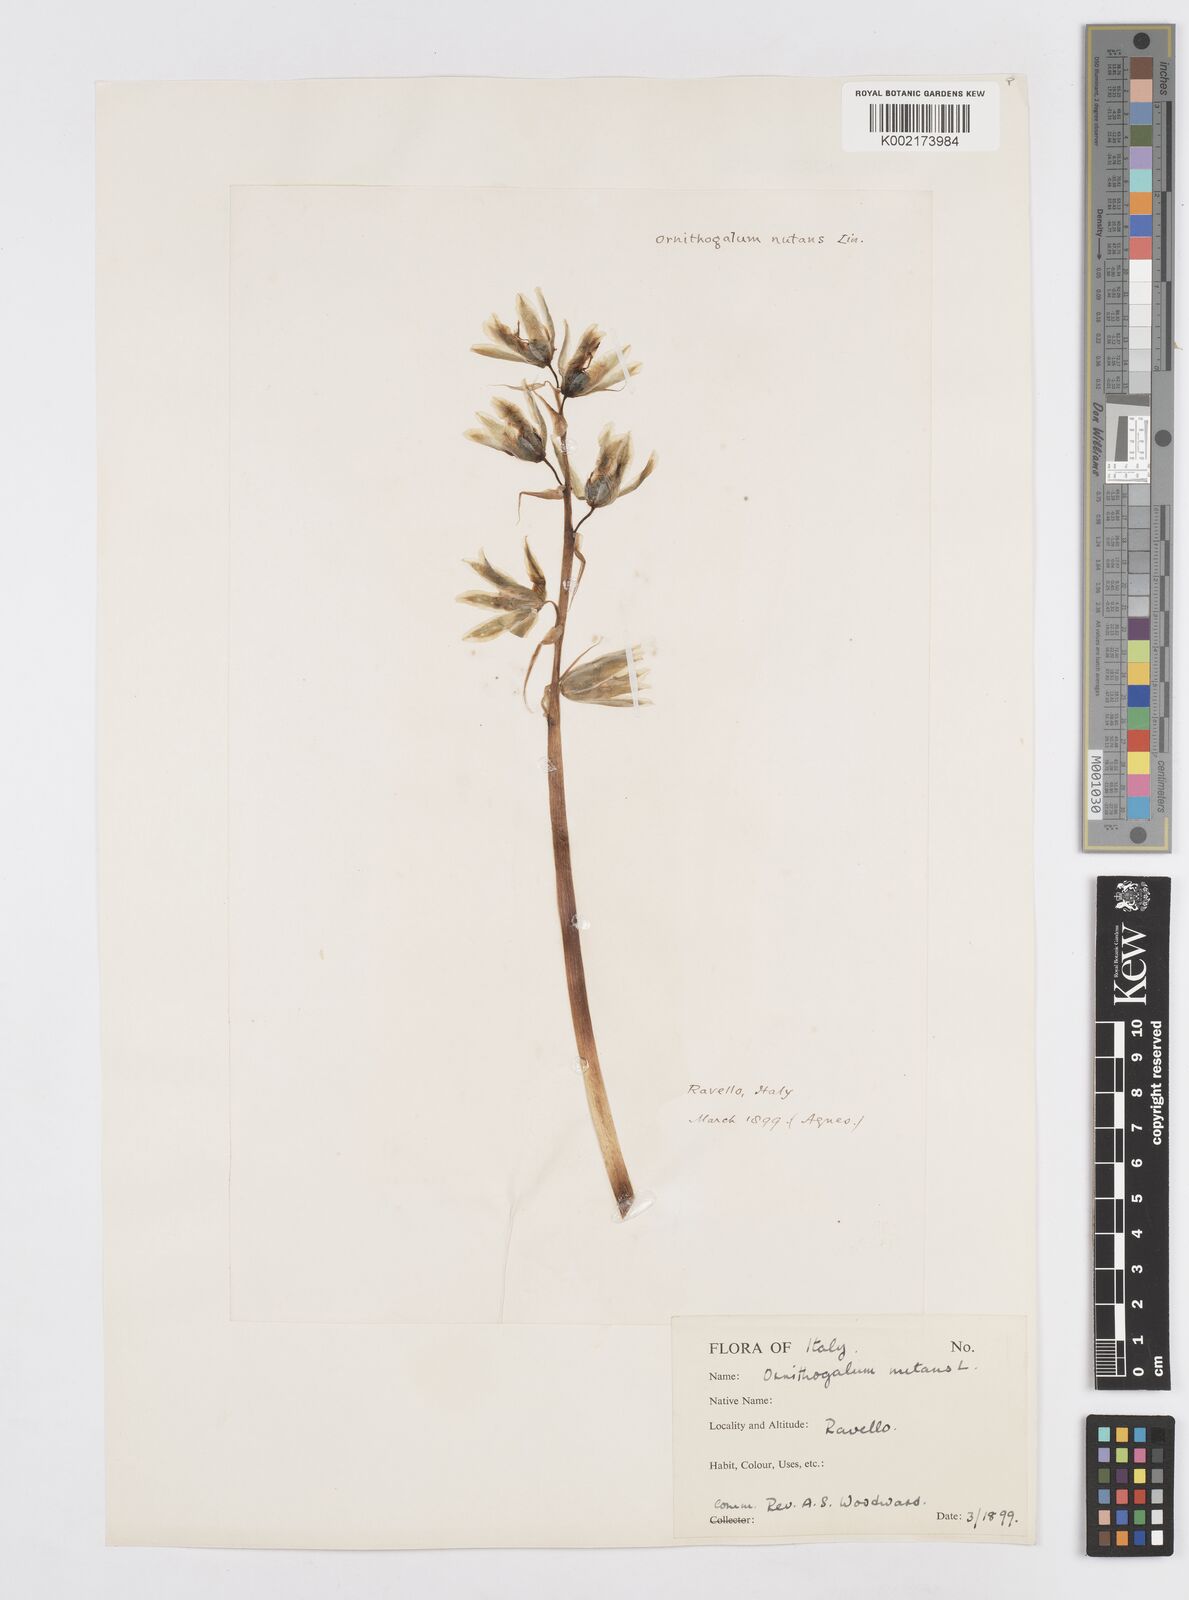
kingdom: Plantae
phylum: Tracheophyta
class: Liliopsida
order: Asparagales
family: Asparagaceae
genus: Ornithogalum
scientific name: Ornithogalum nutans
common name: Drooping star-of-bethlehem
